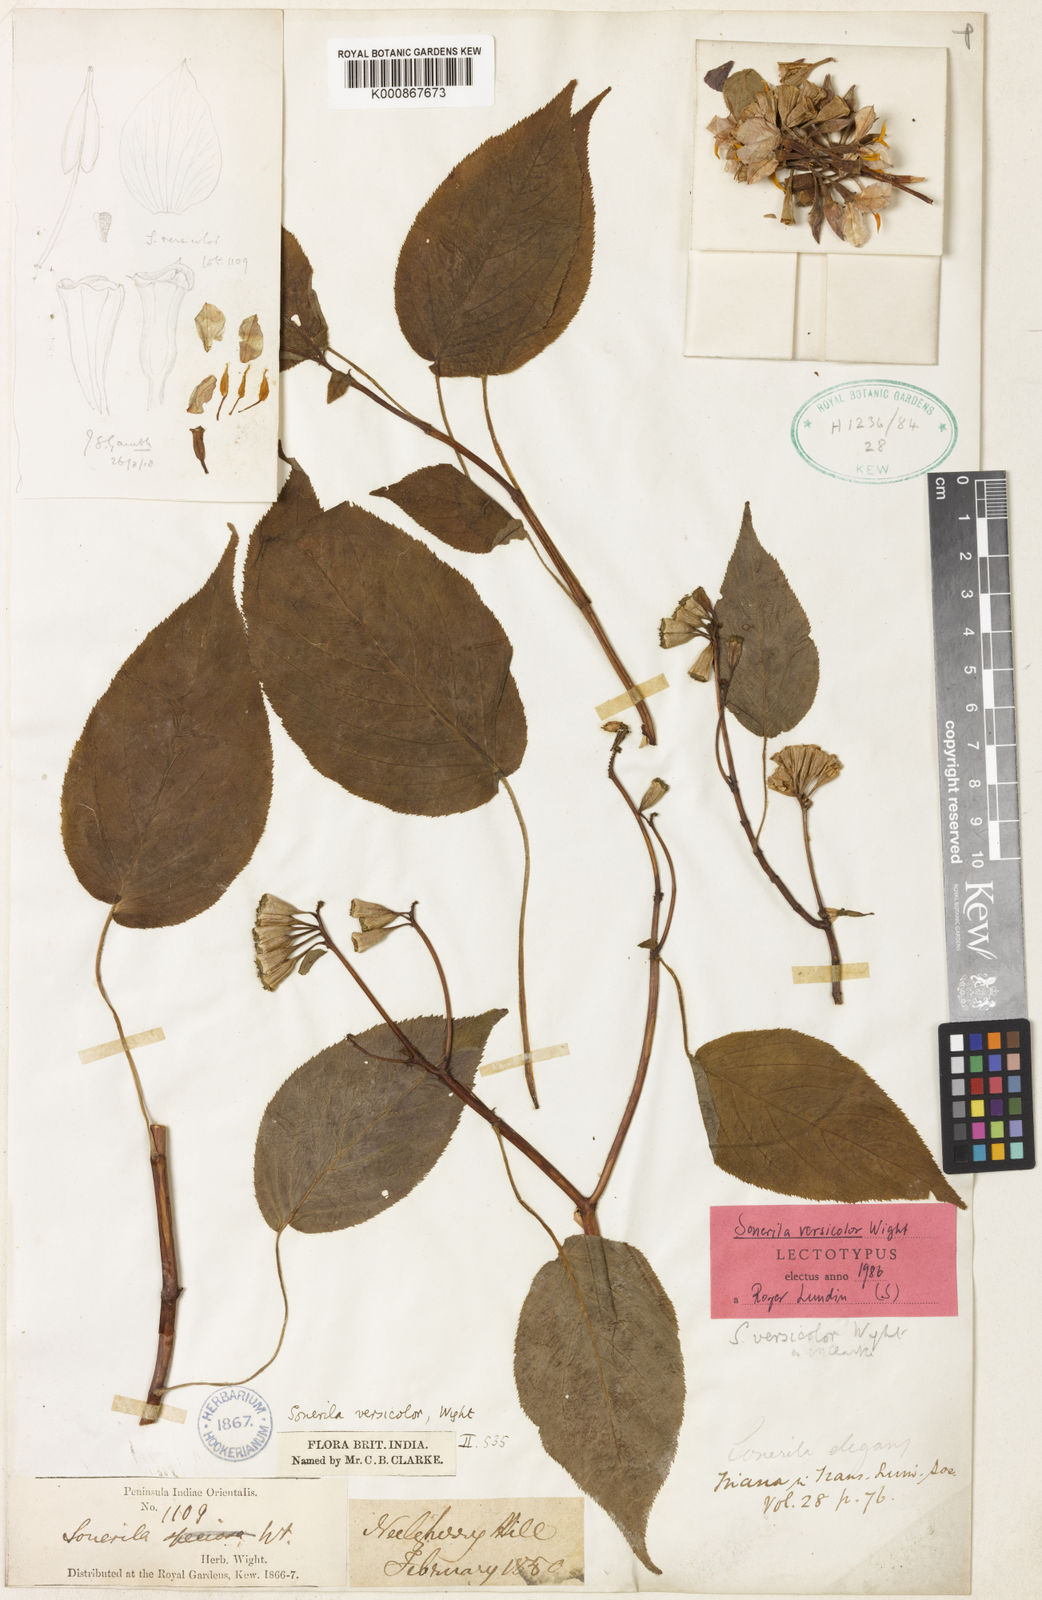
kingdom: Plantae
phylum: Tracheophyta
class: Magnoliopsida
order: Myrtales
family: Melastomataceae
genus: Sonerila
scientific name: Sonerila versicolor
